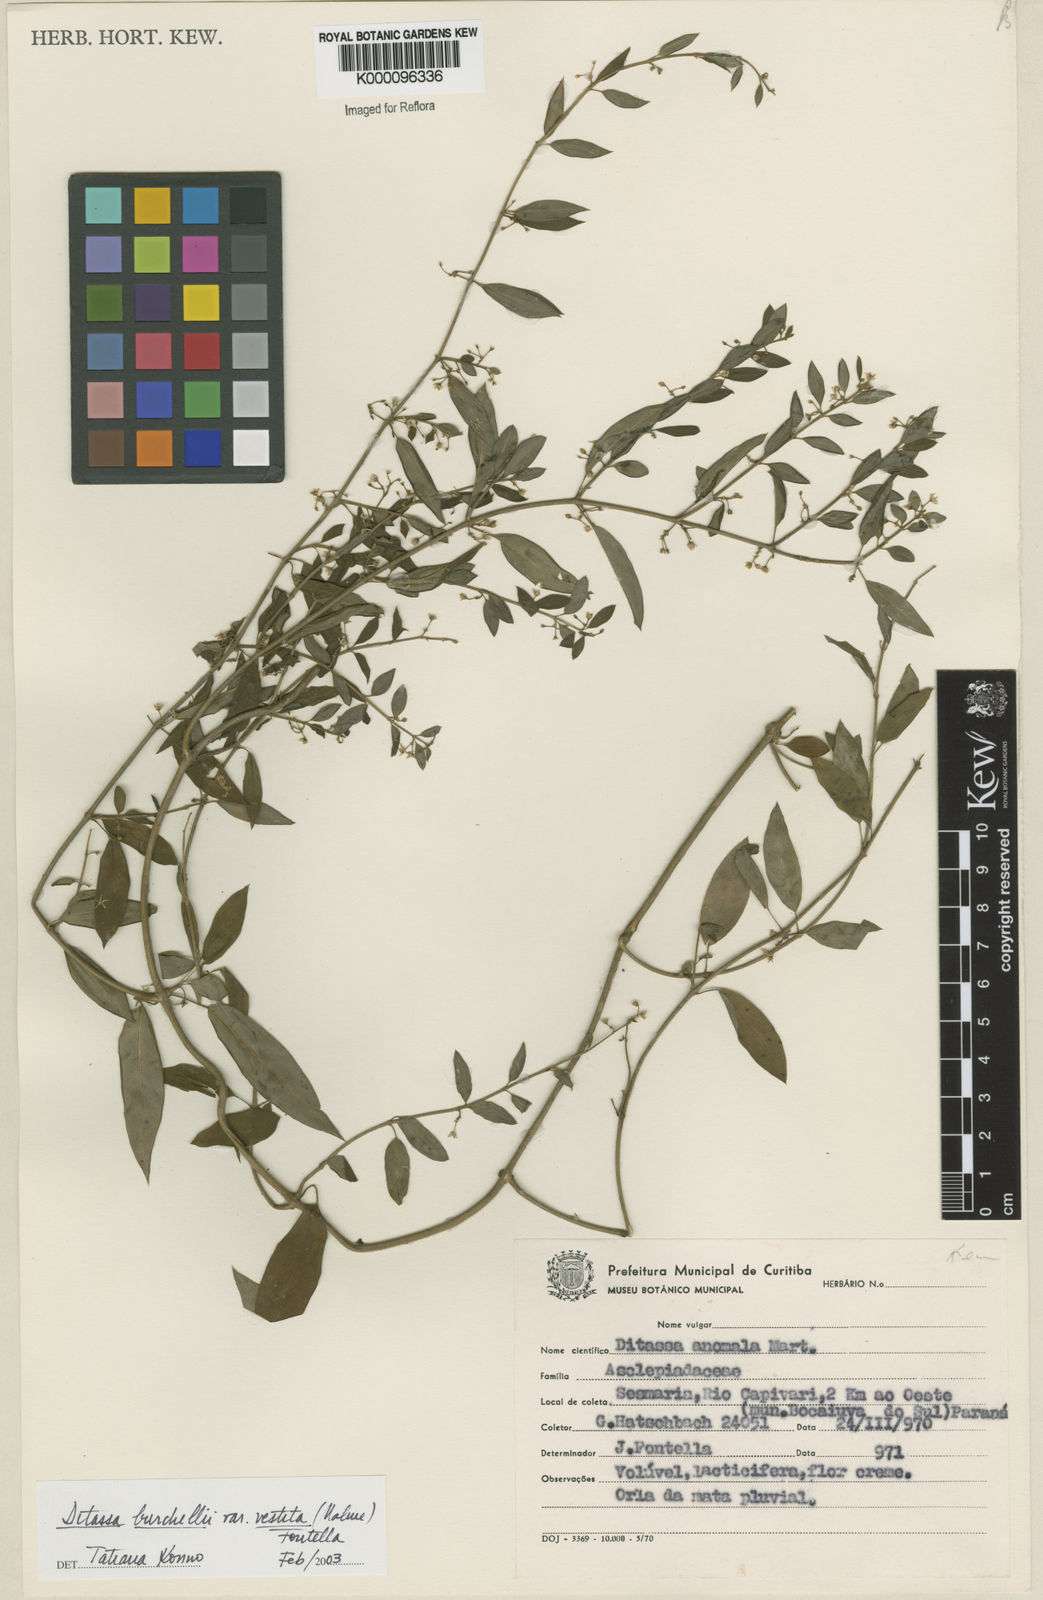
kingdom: Plantae
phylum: Tracheophyta
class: Magnoliopsida
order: Gentianales
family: Apocynaceae
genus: Metastelma
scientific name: Metastelma burchellii
